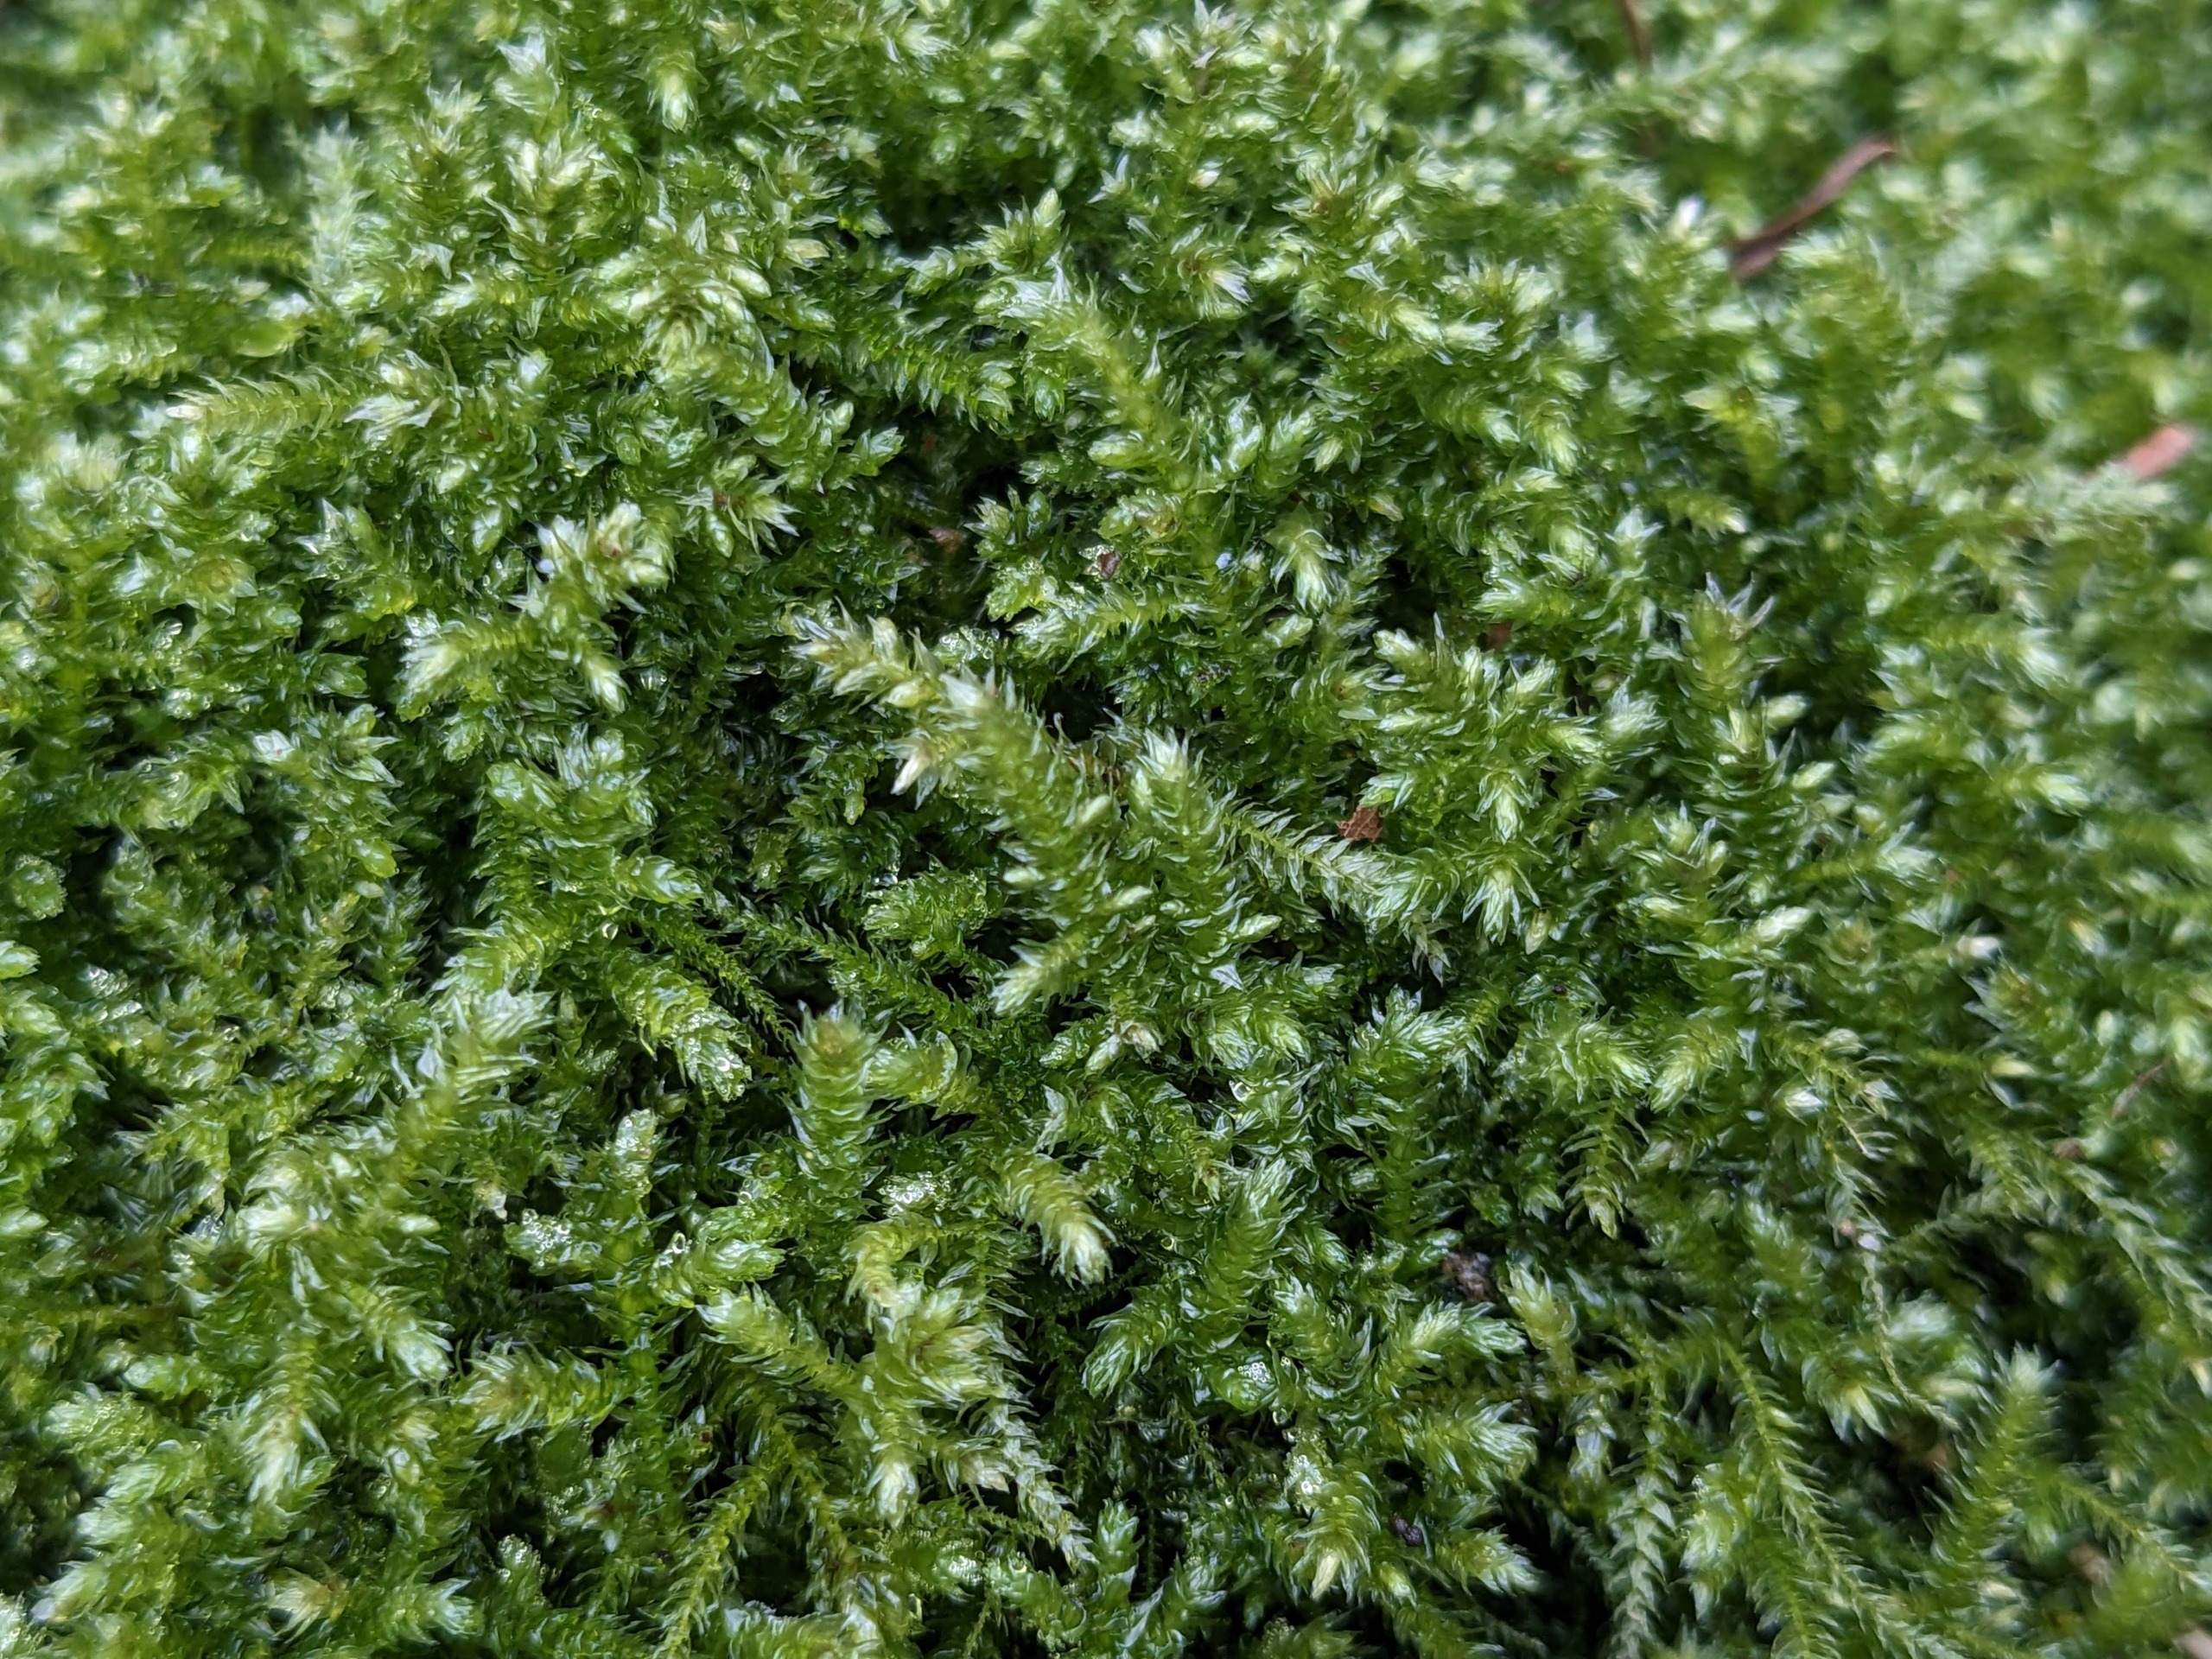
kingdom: Plantae
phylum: Bryophyta
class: Bryopsida
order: Hypnales
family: Brachytheciaceae
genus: Eurhynchium
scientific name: Eurhynchium striatum
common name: Stribet næbmos
